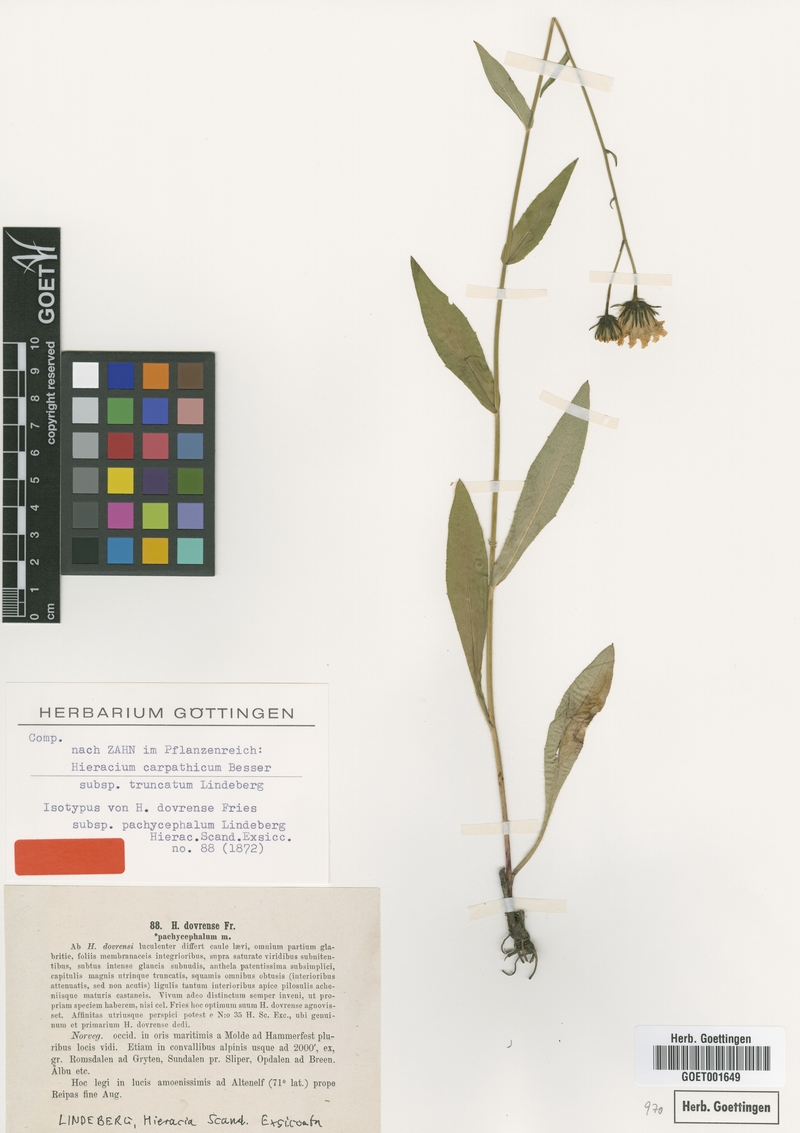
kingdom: Plantae
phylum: Tracheophyta
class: Magnoliopsida
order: Asterales
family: Asteraceae
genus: Hieracium
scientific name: Hieracium truncatum
